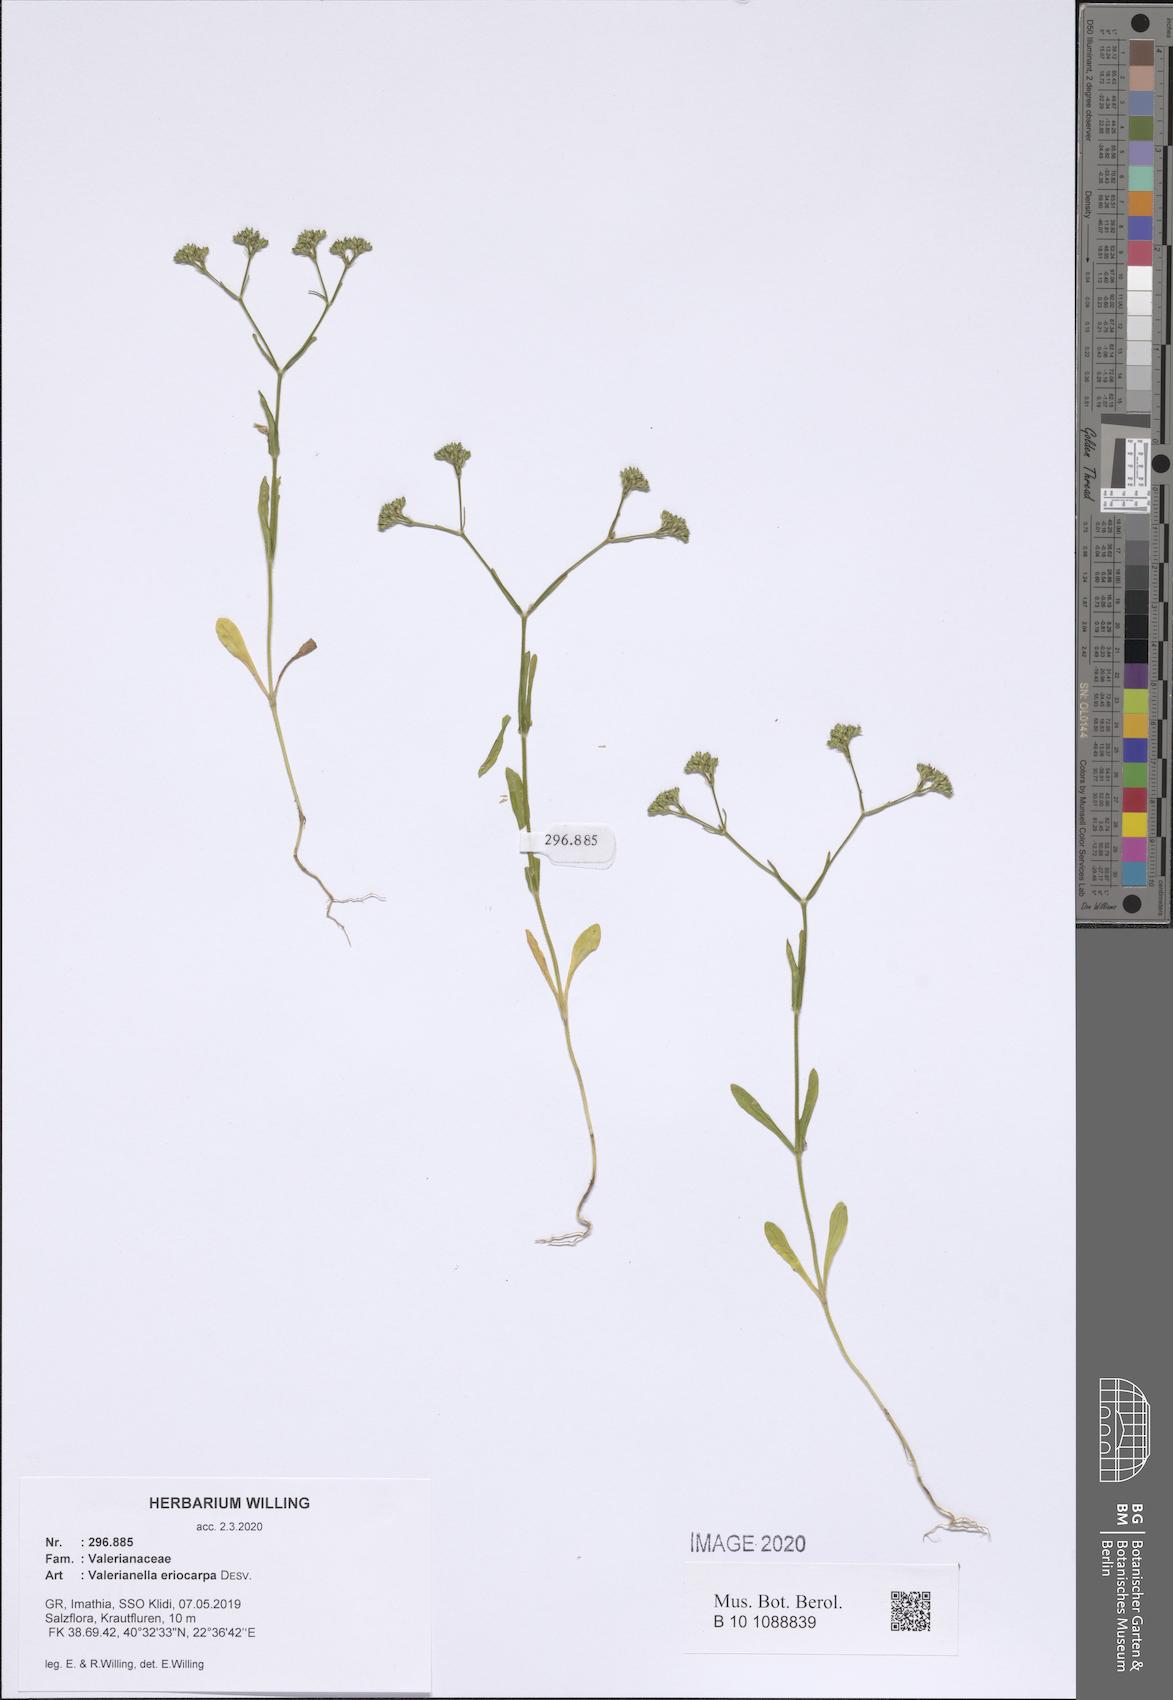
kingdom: Plantae
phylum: Tracheophyta
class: Magnoliopsida
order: Dipsacales
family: Caprifoliaceae
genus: Valerianella
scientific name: Valerianella eriocarpa
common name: Hairy-fruited cornsalad
